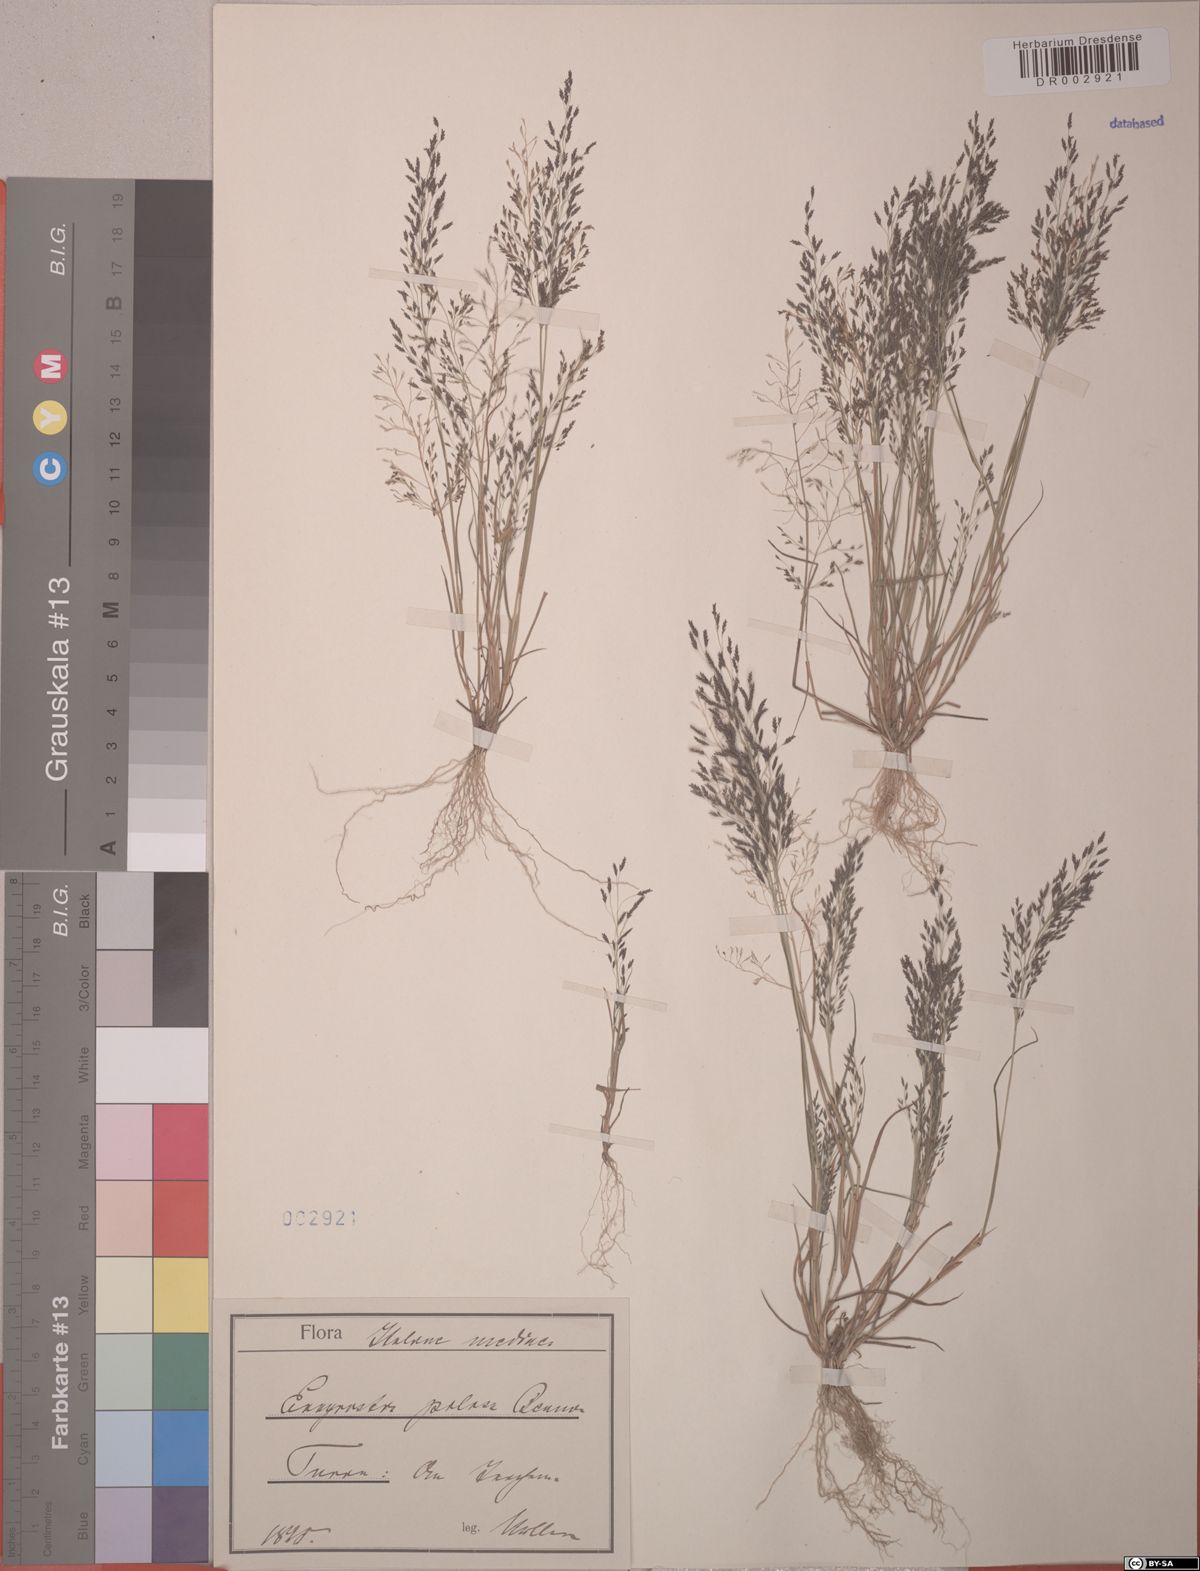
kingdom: Plantae
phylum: Tracheophyta
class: Liliopsida
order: Poales
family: Poaceae
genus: Eragrostis
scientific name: Eragrostis pilosa
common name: Indian lovegrass
